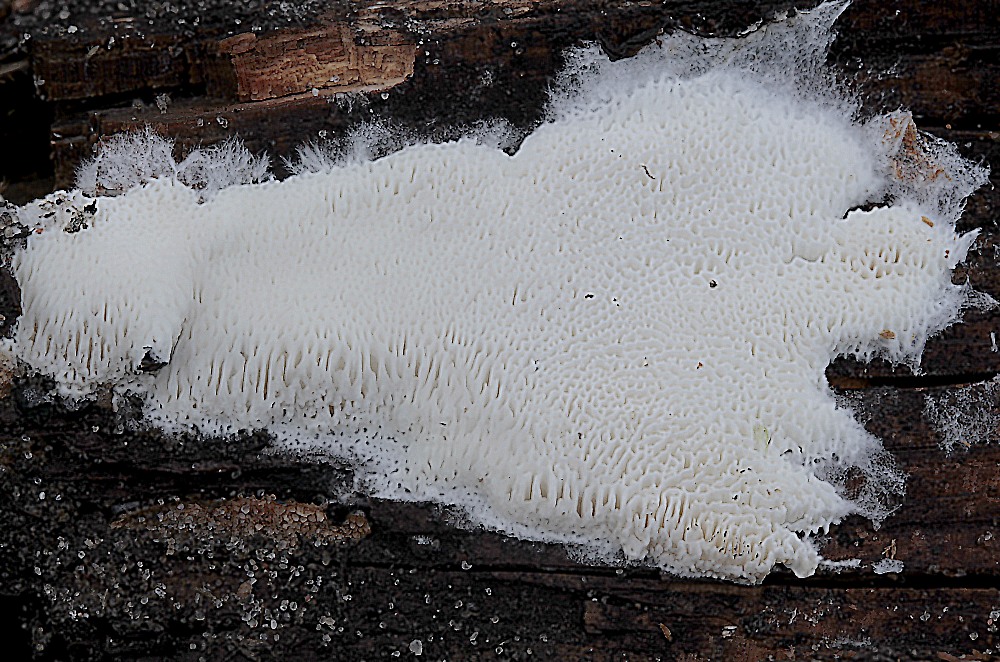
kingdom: Fungi
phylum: Basidiomycota
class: Agaricomycetes
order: Polyporales
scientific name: Polyporales
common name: poresvampordenen
